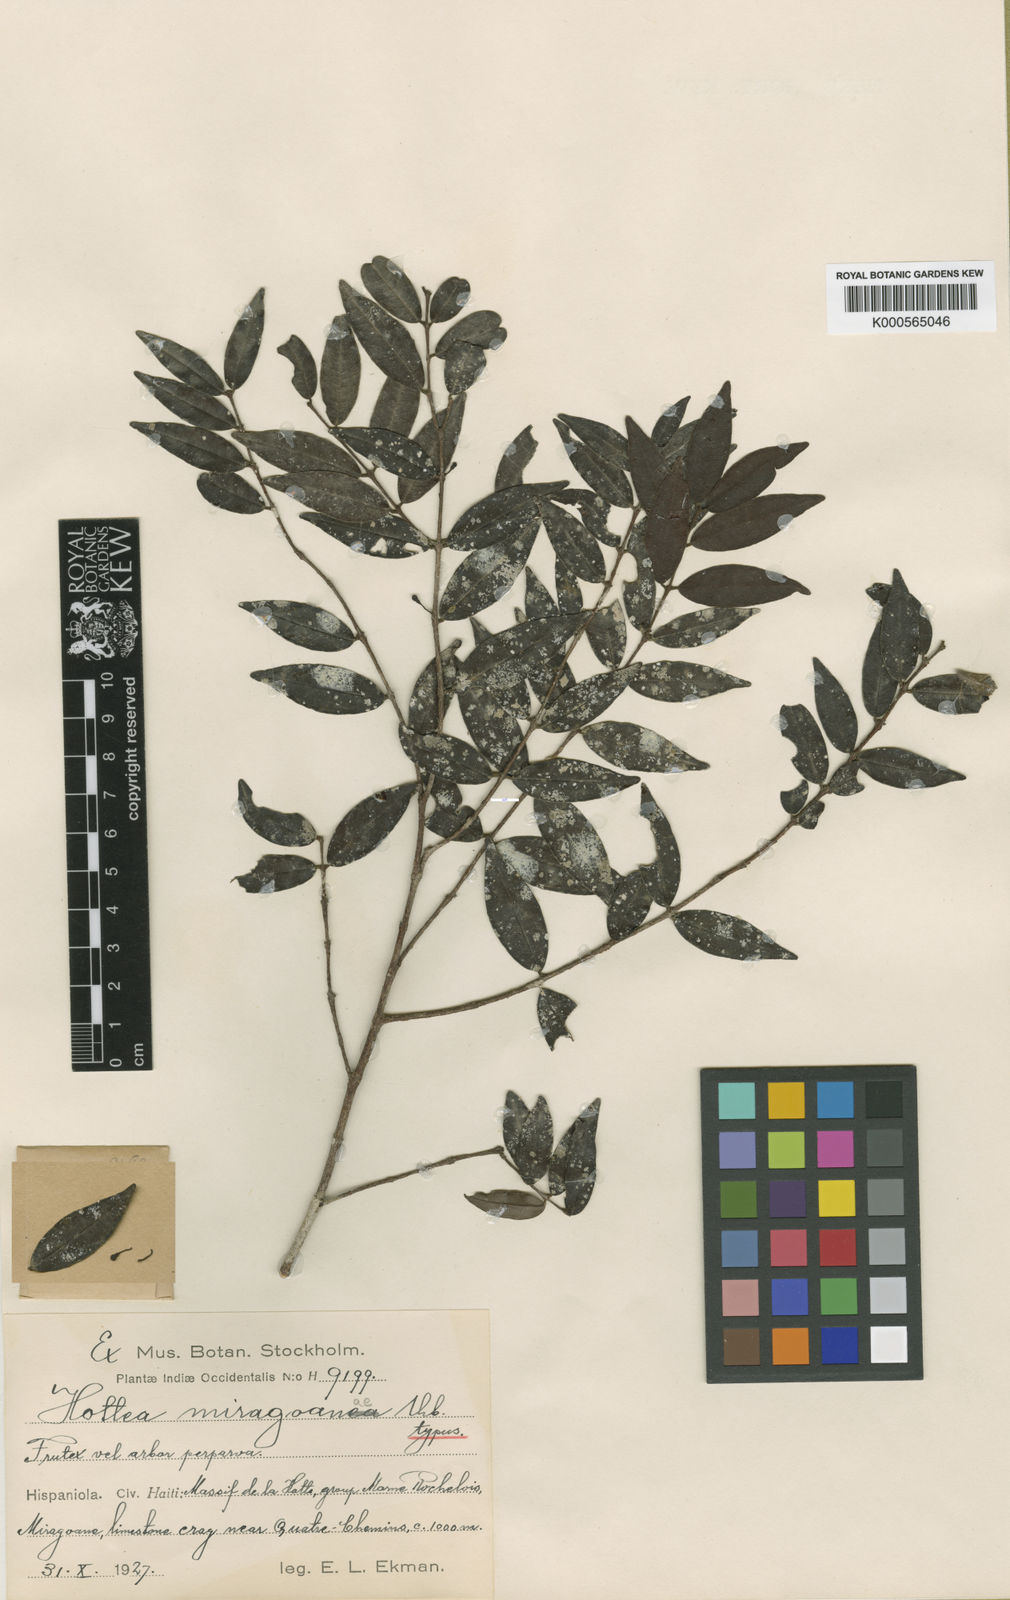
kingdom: Plantae
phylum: Tracheophyta
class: Magnoliopsida
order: Myrtales
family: Myrtaceae
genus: Eugenia
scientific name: Eugenia miragoanae
